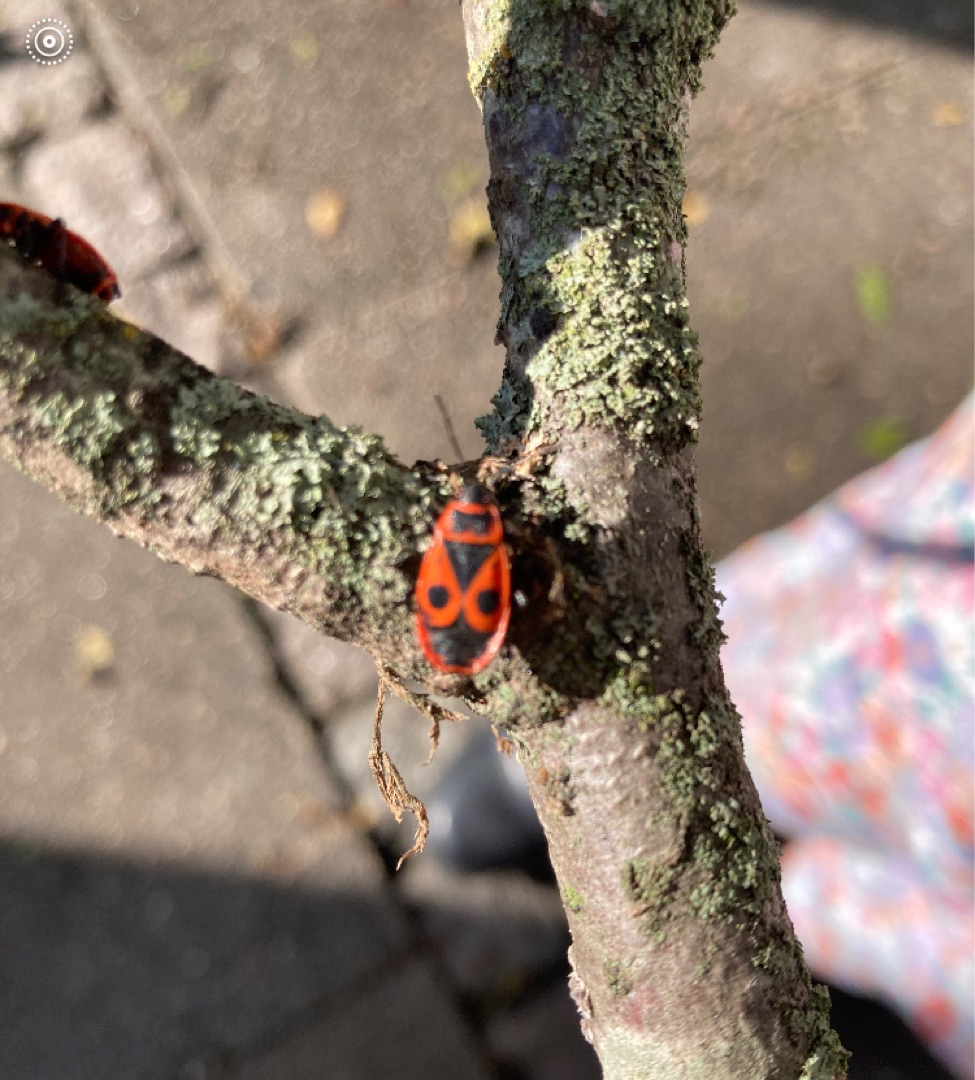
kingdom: Animalia
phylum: Arthropoda
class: Insecta
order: Hemiptera
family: Pyrrhocoridae
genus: Pyrrhocoris
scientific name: Pyrrhocoris apterus
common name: Ildtæge
